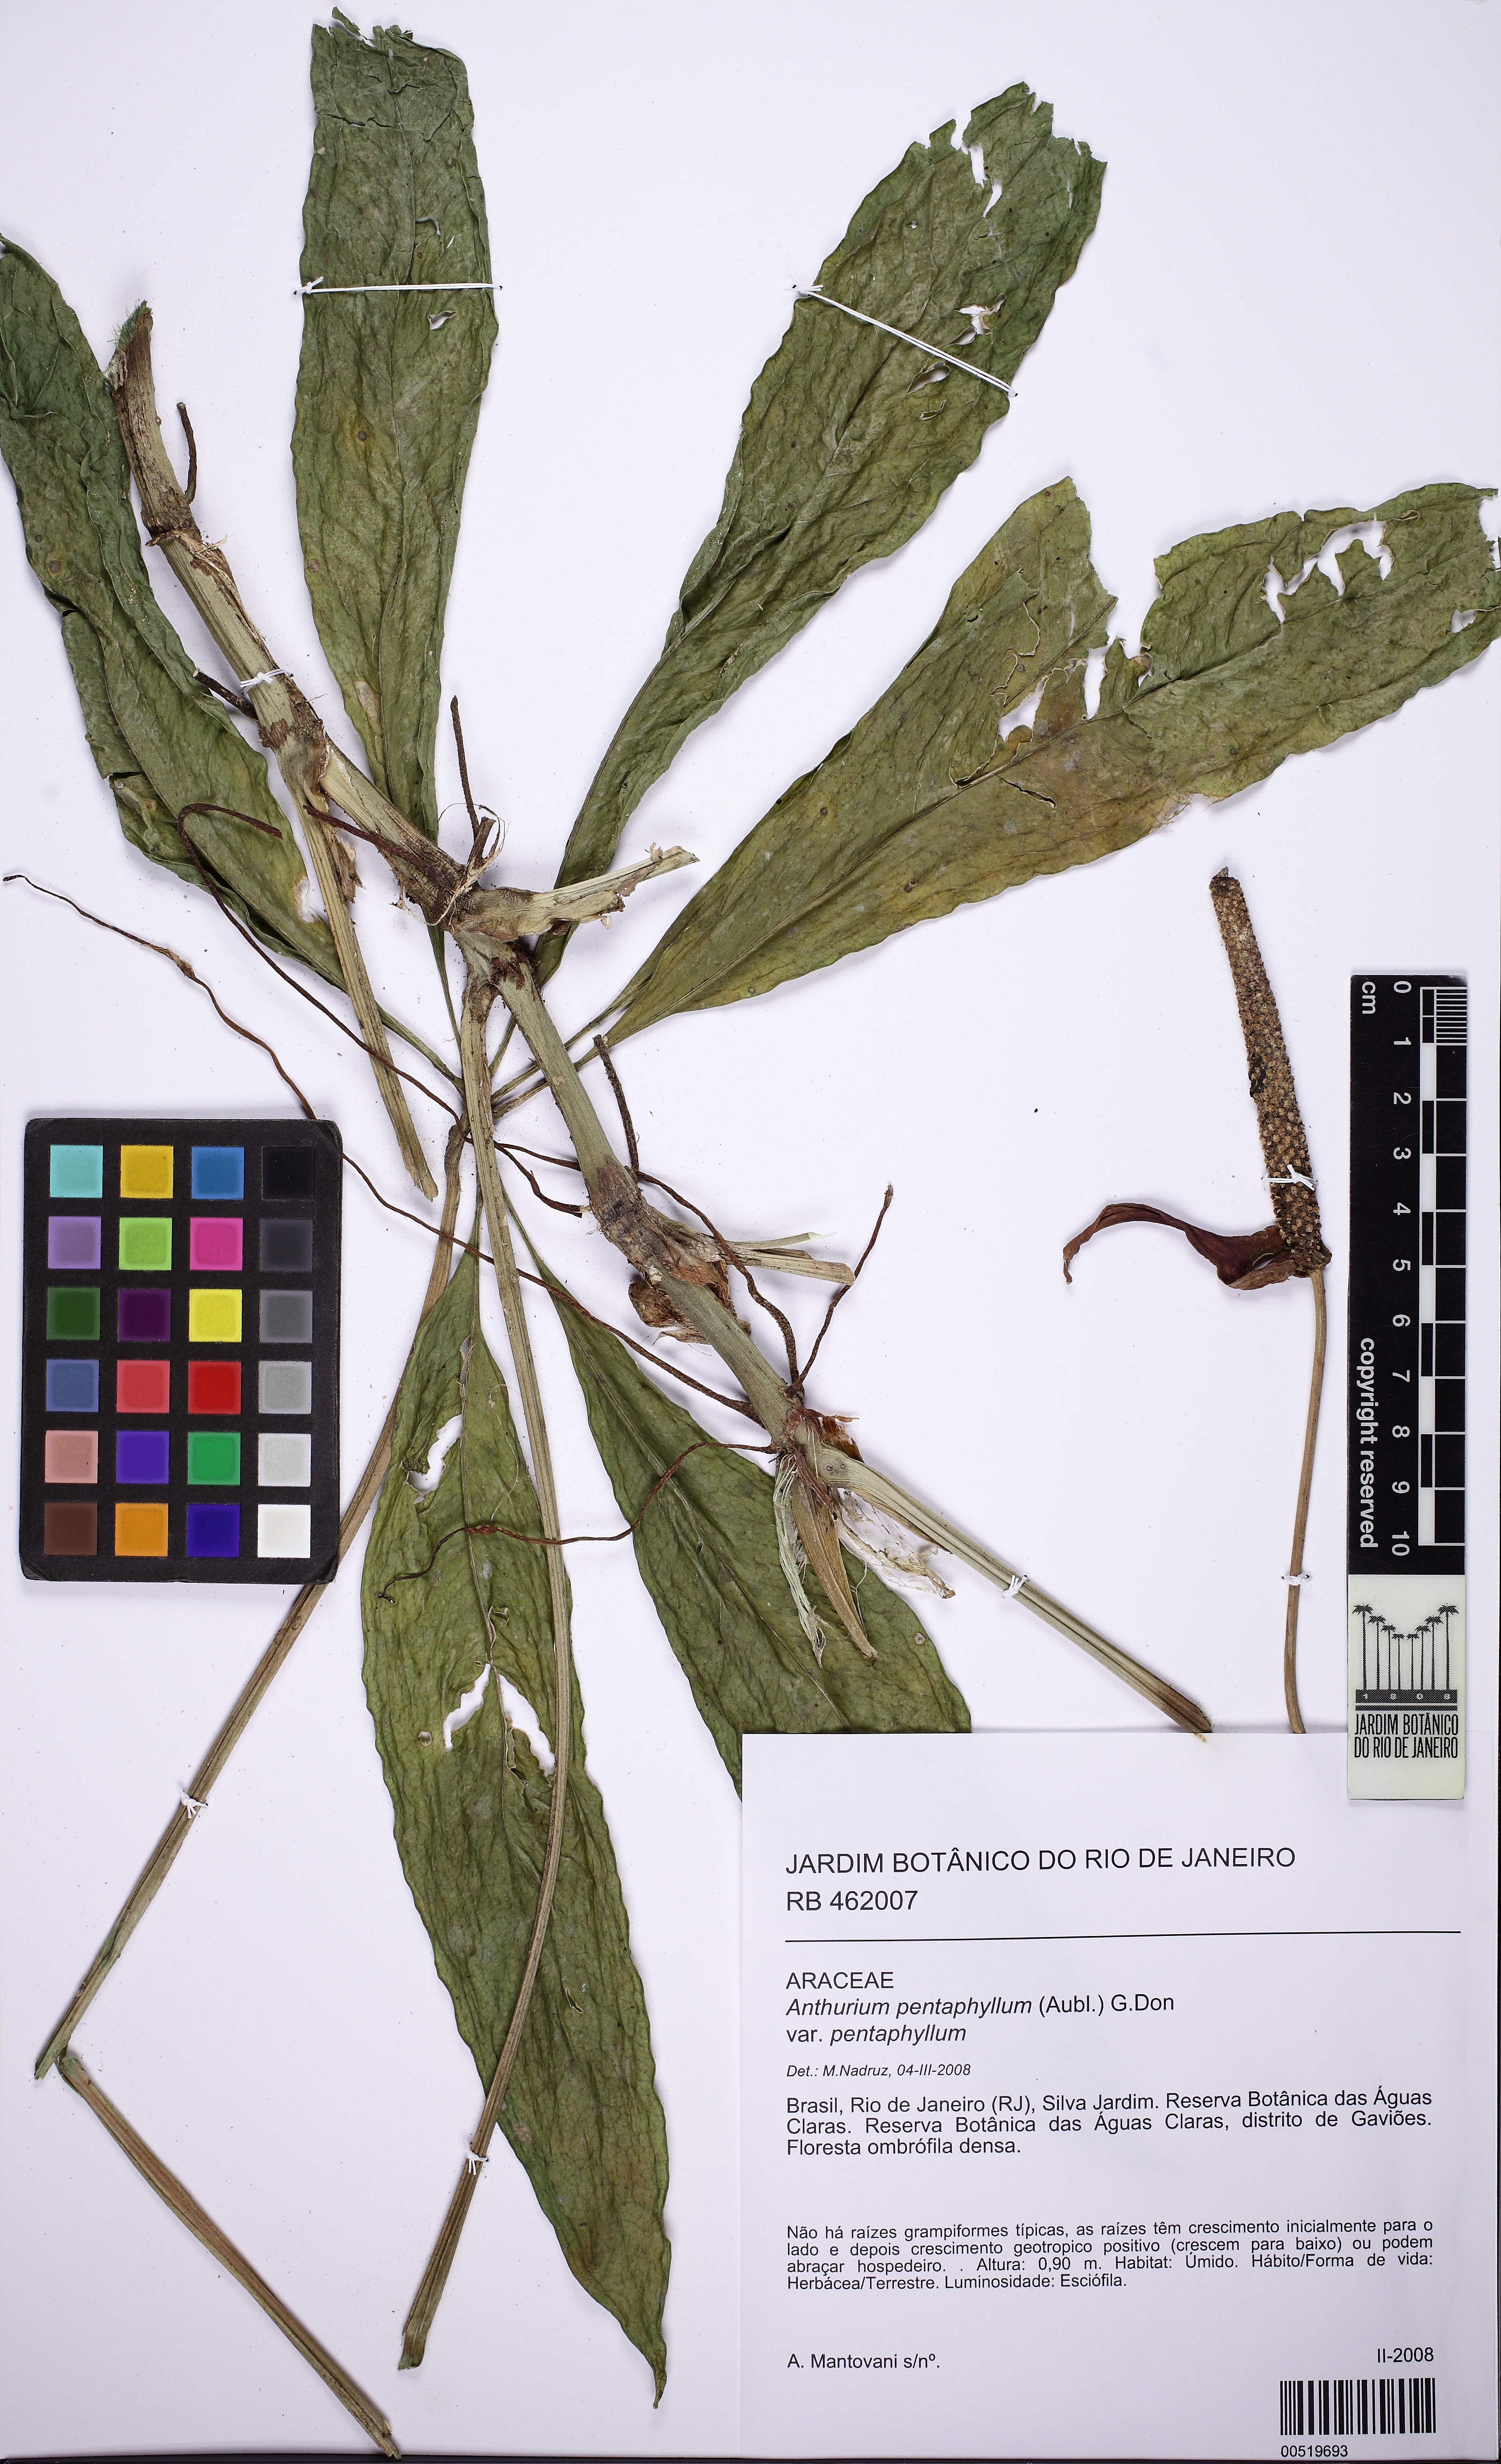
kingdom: Plantae
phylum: Tracheophyta
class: Liliopsida
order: Alismatales
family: Araceae
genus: Anthurium
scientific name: Anthurium pentaphyllum
